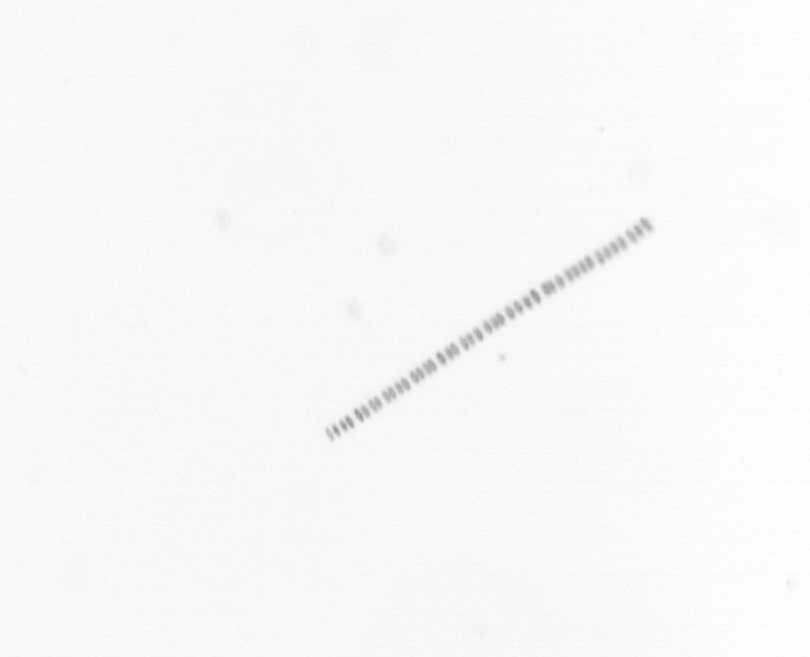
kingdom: Chromista
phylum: Ochrophyta
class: Bacillariophyceae
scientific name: Bacillariophyceae
